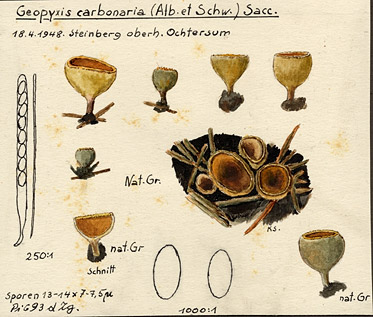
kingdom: Fungi
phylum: Ascomycota
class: Pezizomycetes
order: Pezizales
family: Pyronemataceae
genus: Geopyxis
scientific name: Geopyxis carbonaria
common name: Stalked bonfire cup
